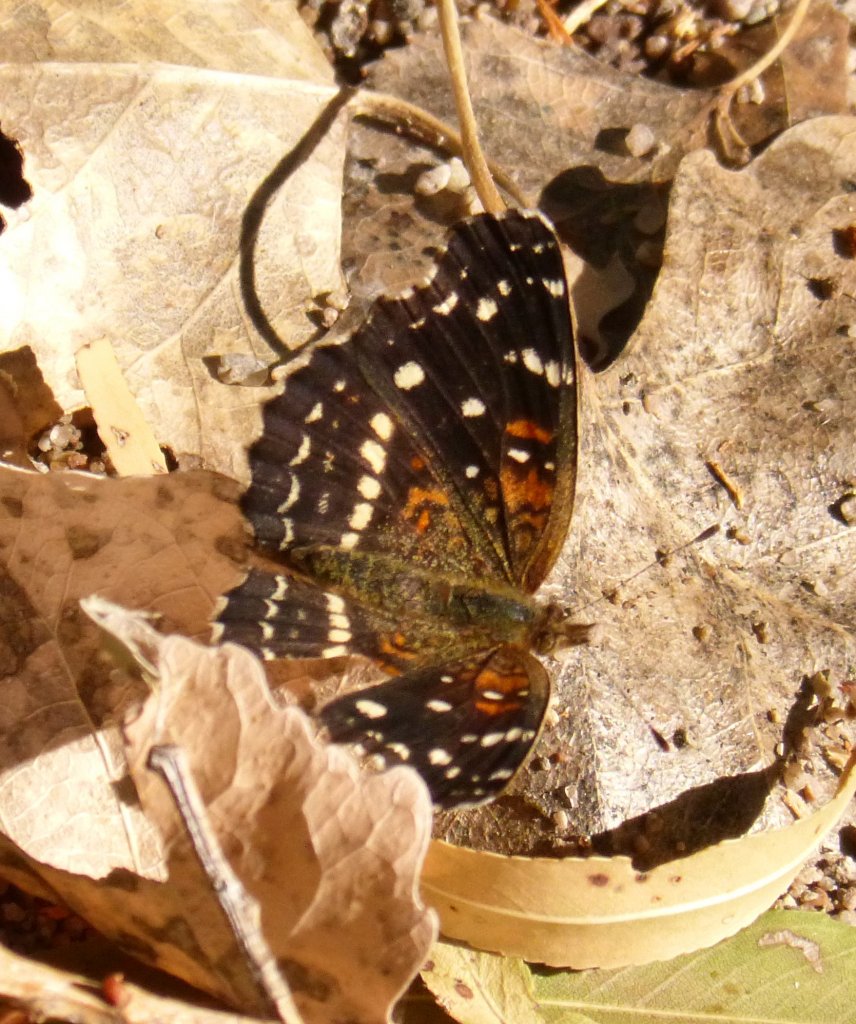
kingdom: Animalia
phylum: Arthropoda
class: Insecta
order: Lepidoptera
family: Nymphalidae
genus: Anthanassa
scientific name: Anthanassa texana
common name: Texan Crescent
